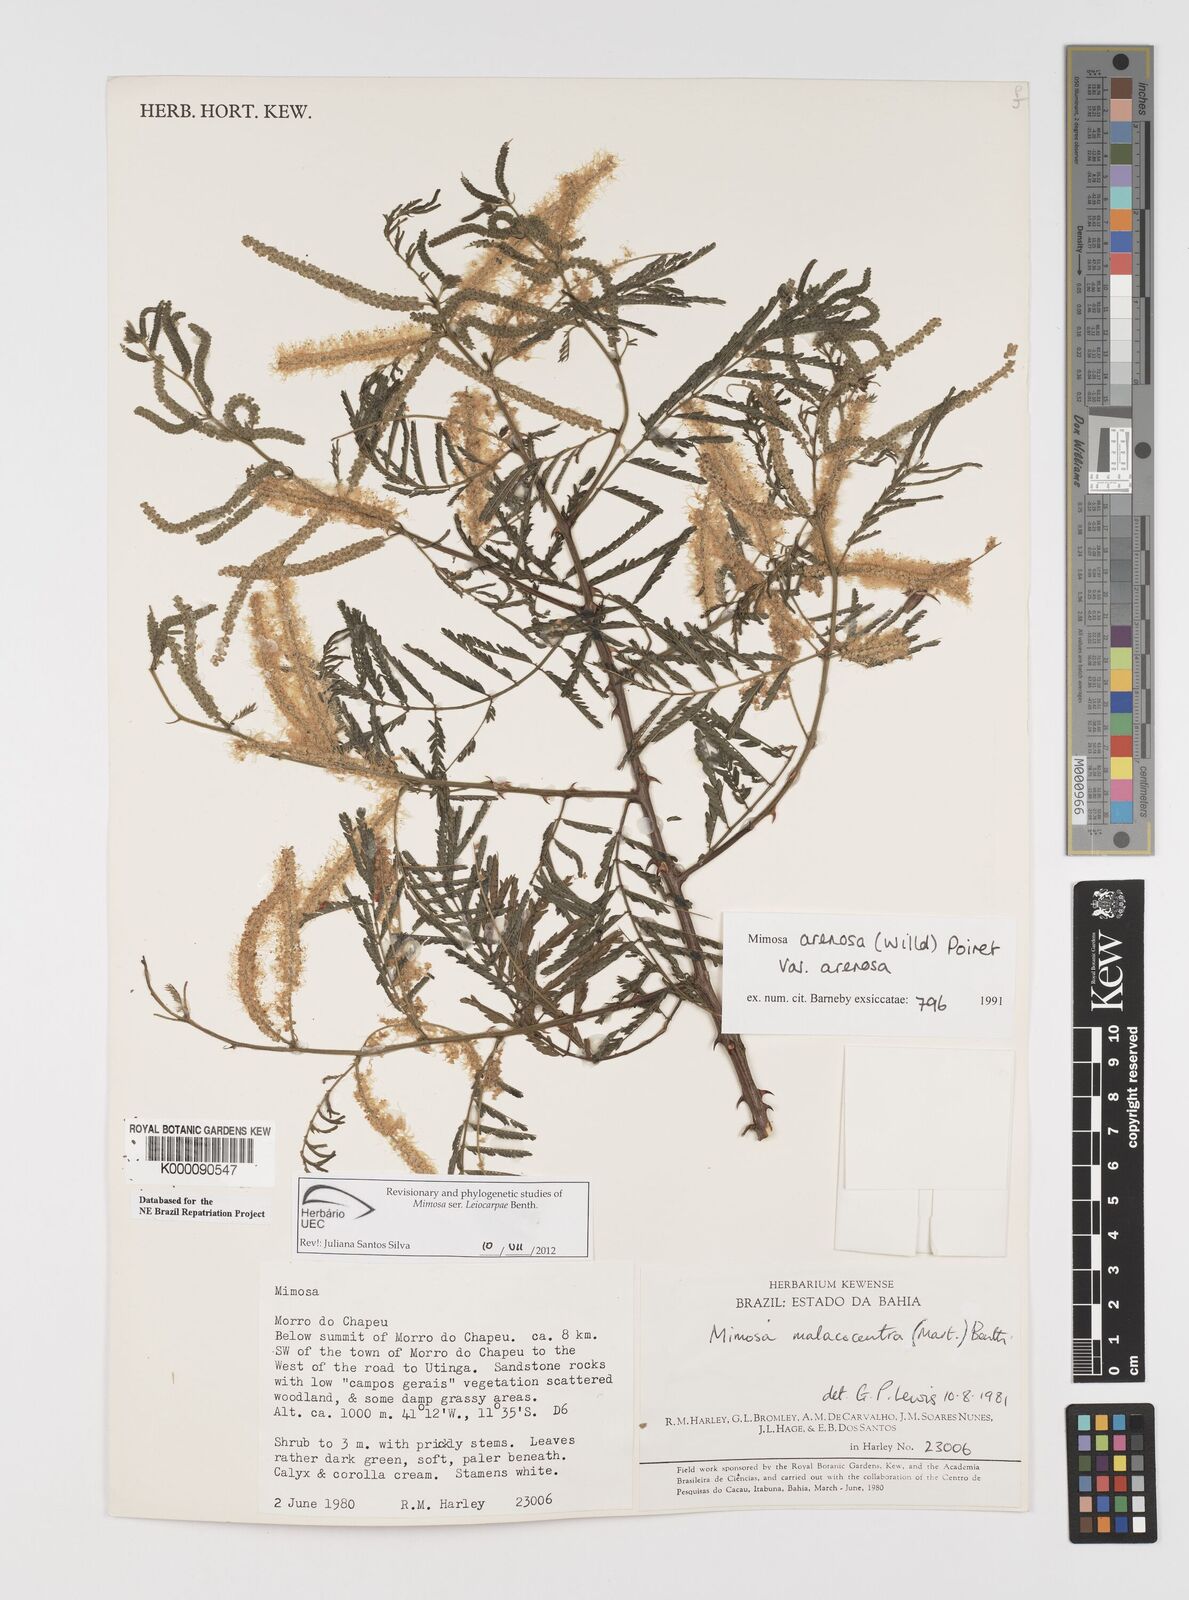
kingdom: Plantae
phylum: Tracheophyta
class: Magnoliopsida
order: Fabales
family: Fabaceae
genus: Mimosa
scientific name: Mimosa arenosa
